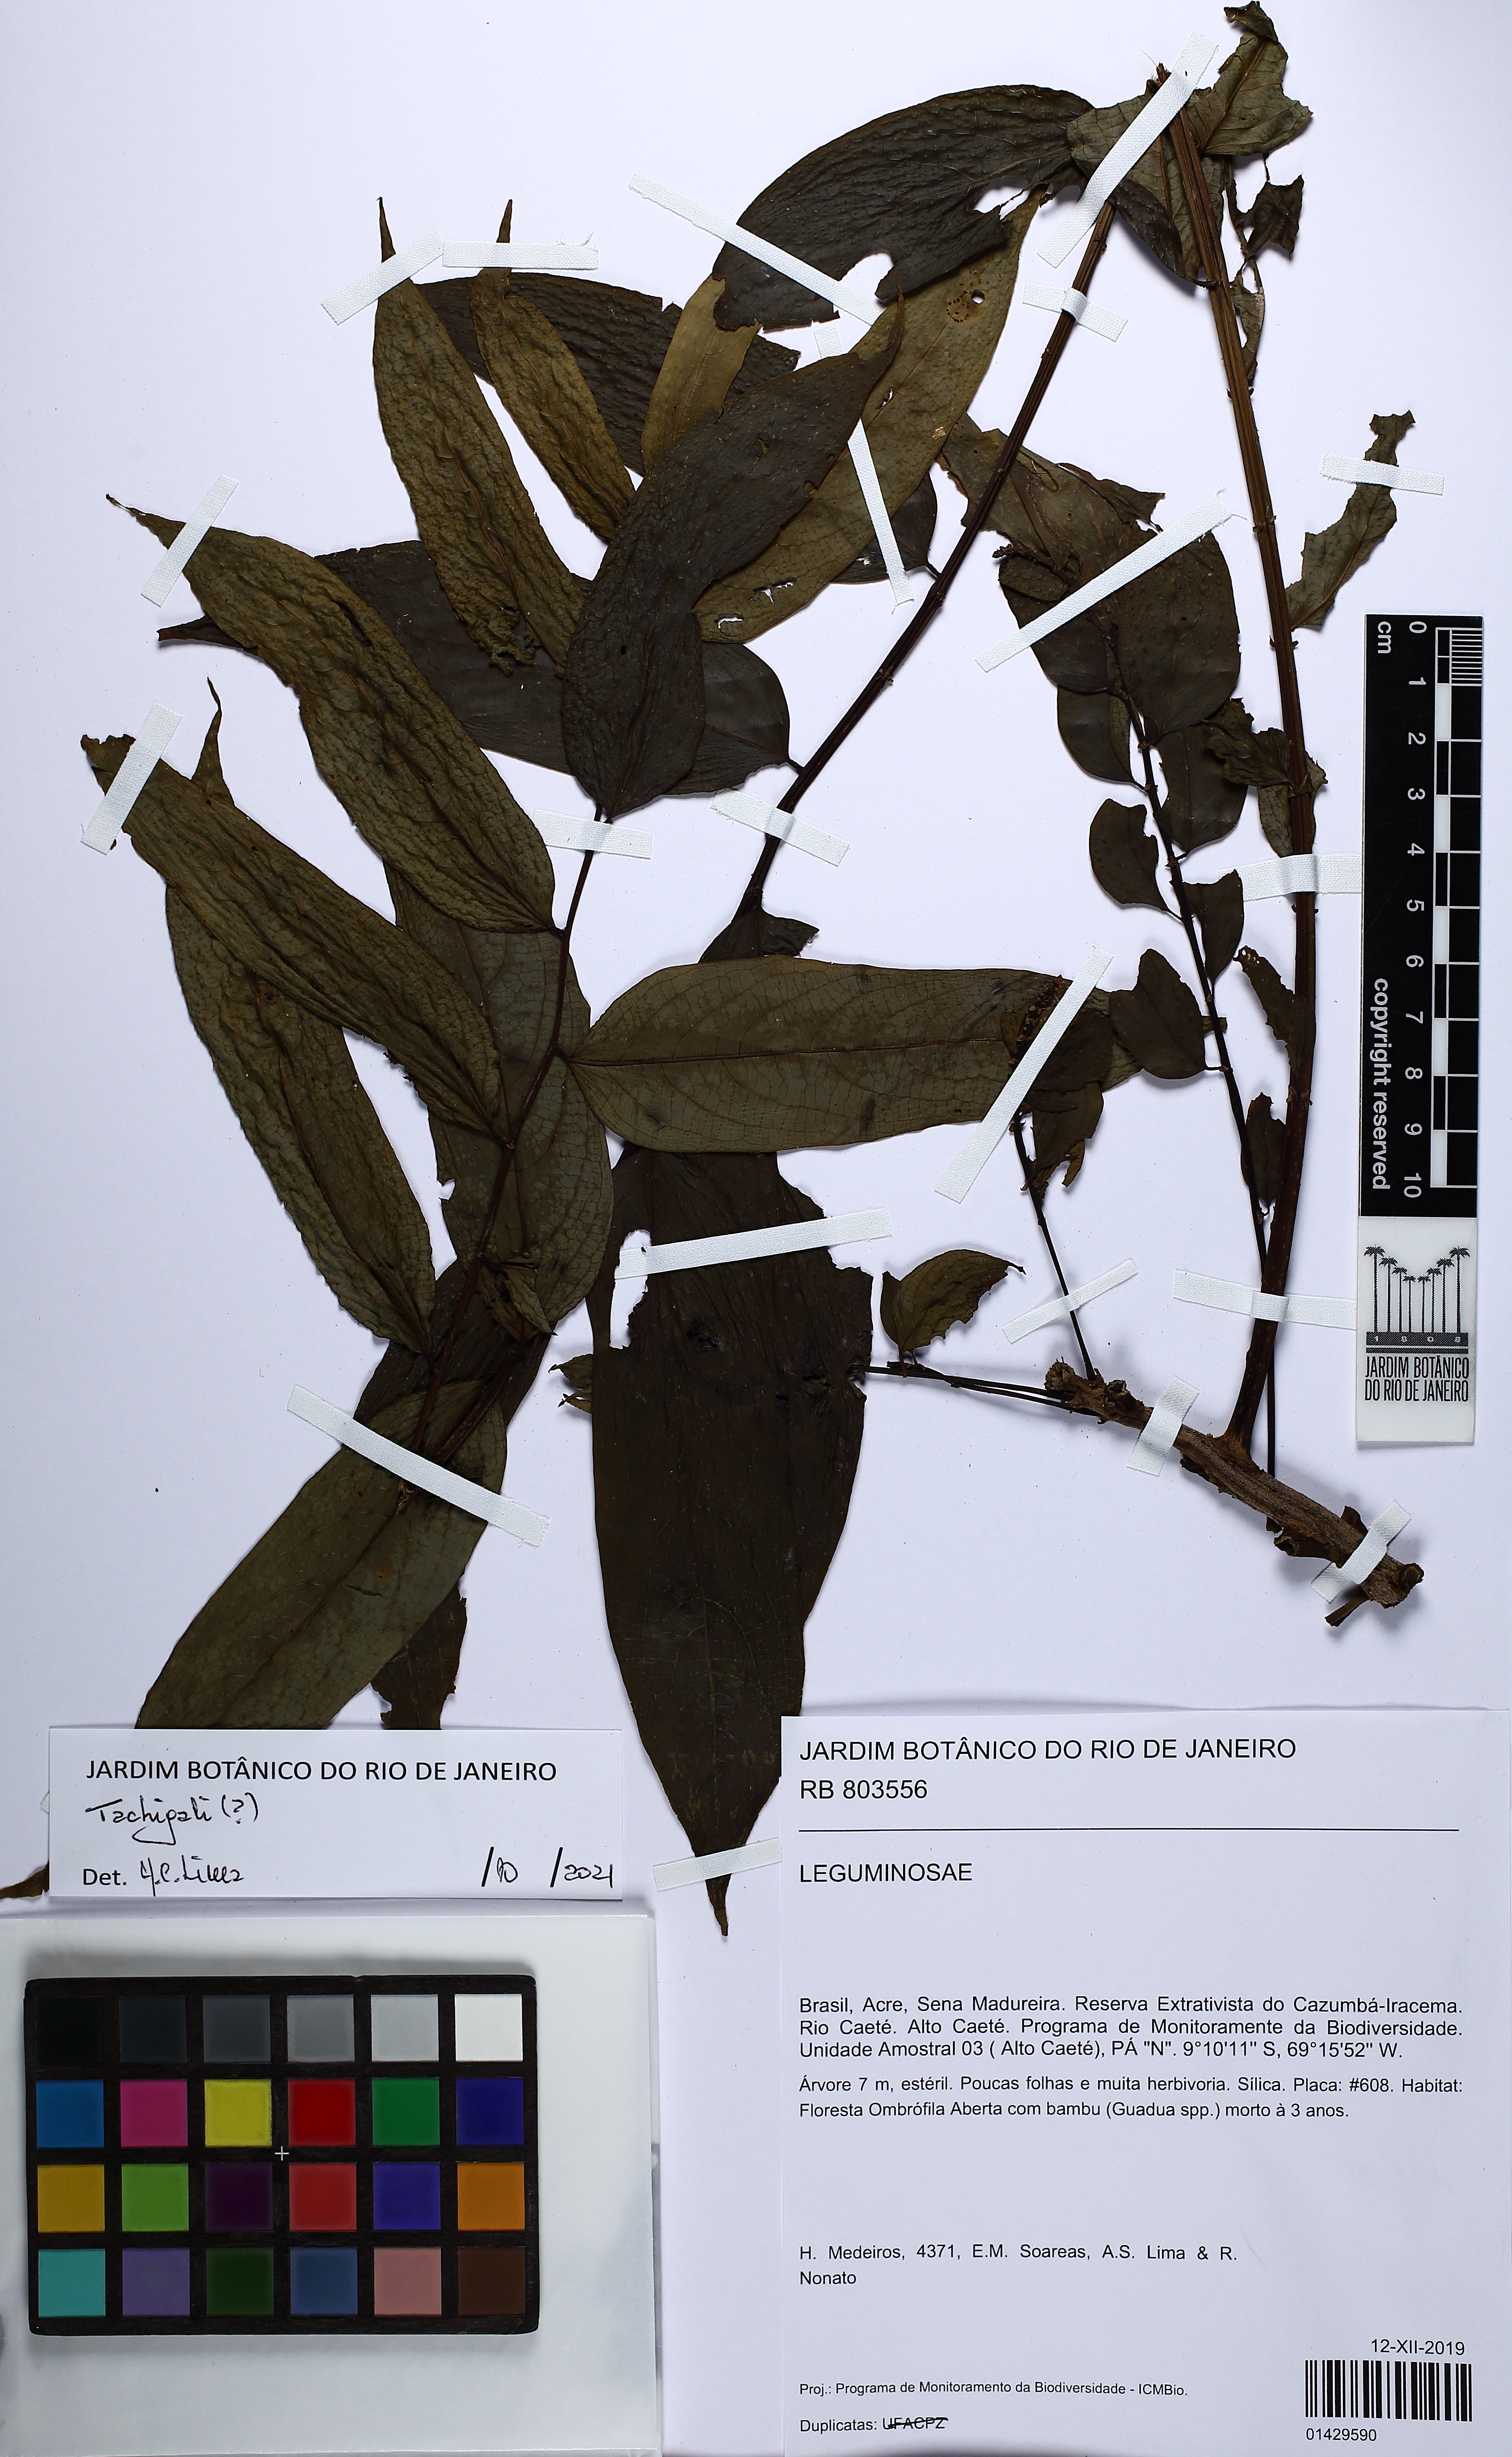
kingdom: Plantae
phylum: Tracheophyta
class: Magnoliopsida
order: Fabales
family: Fabaceae
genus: Tachigali
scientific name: Tachigali
